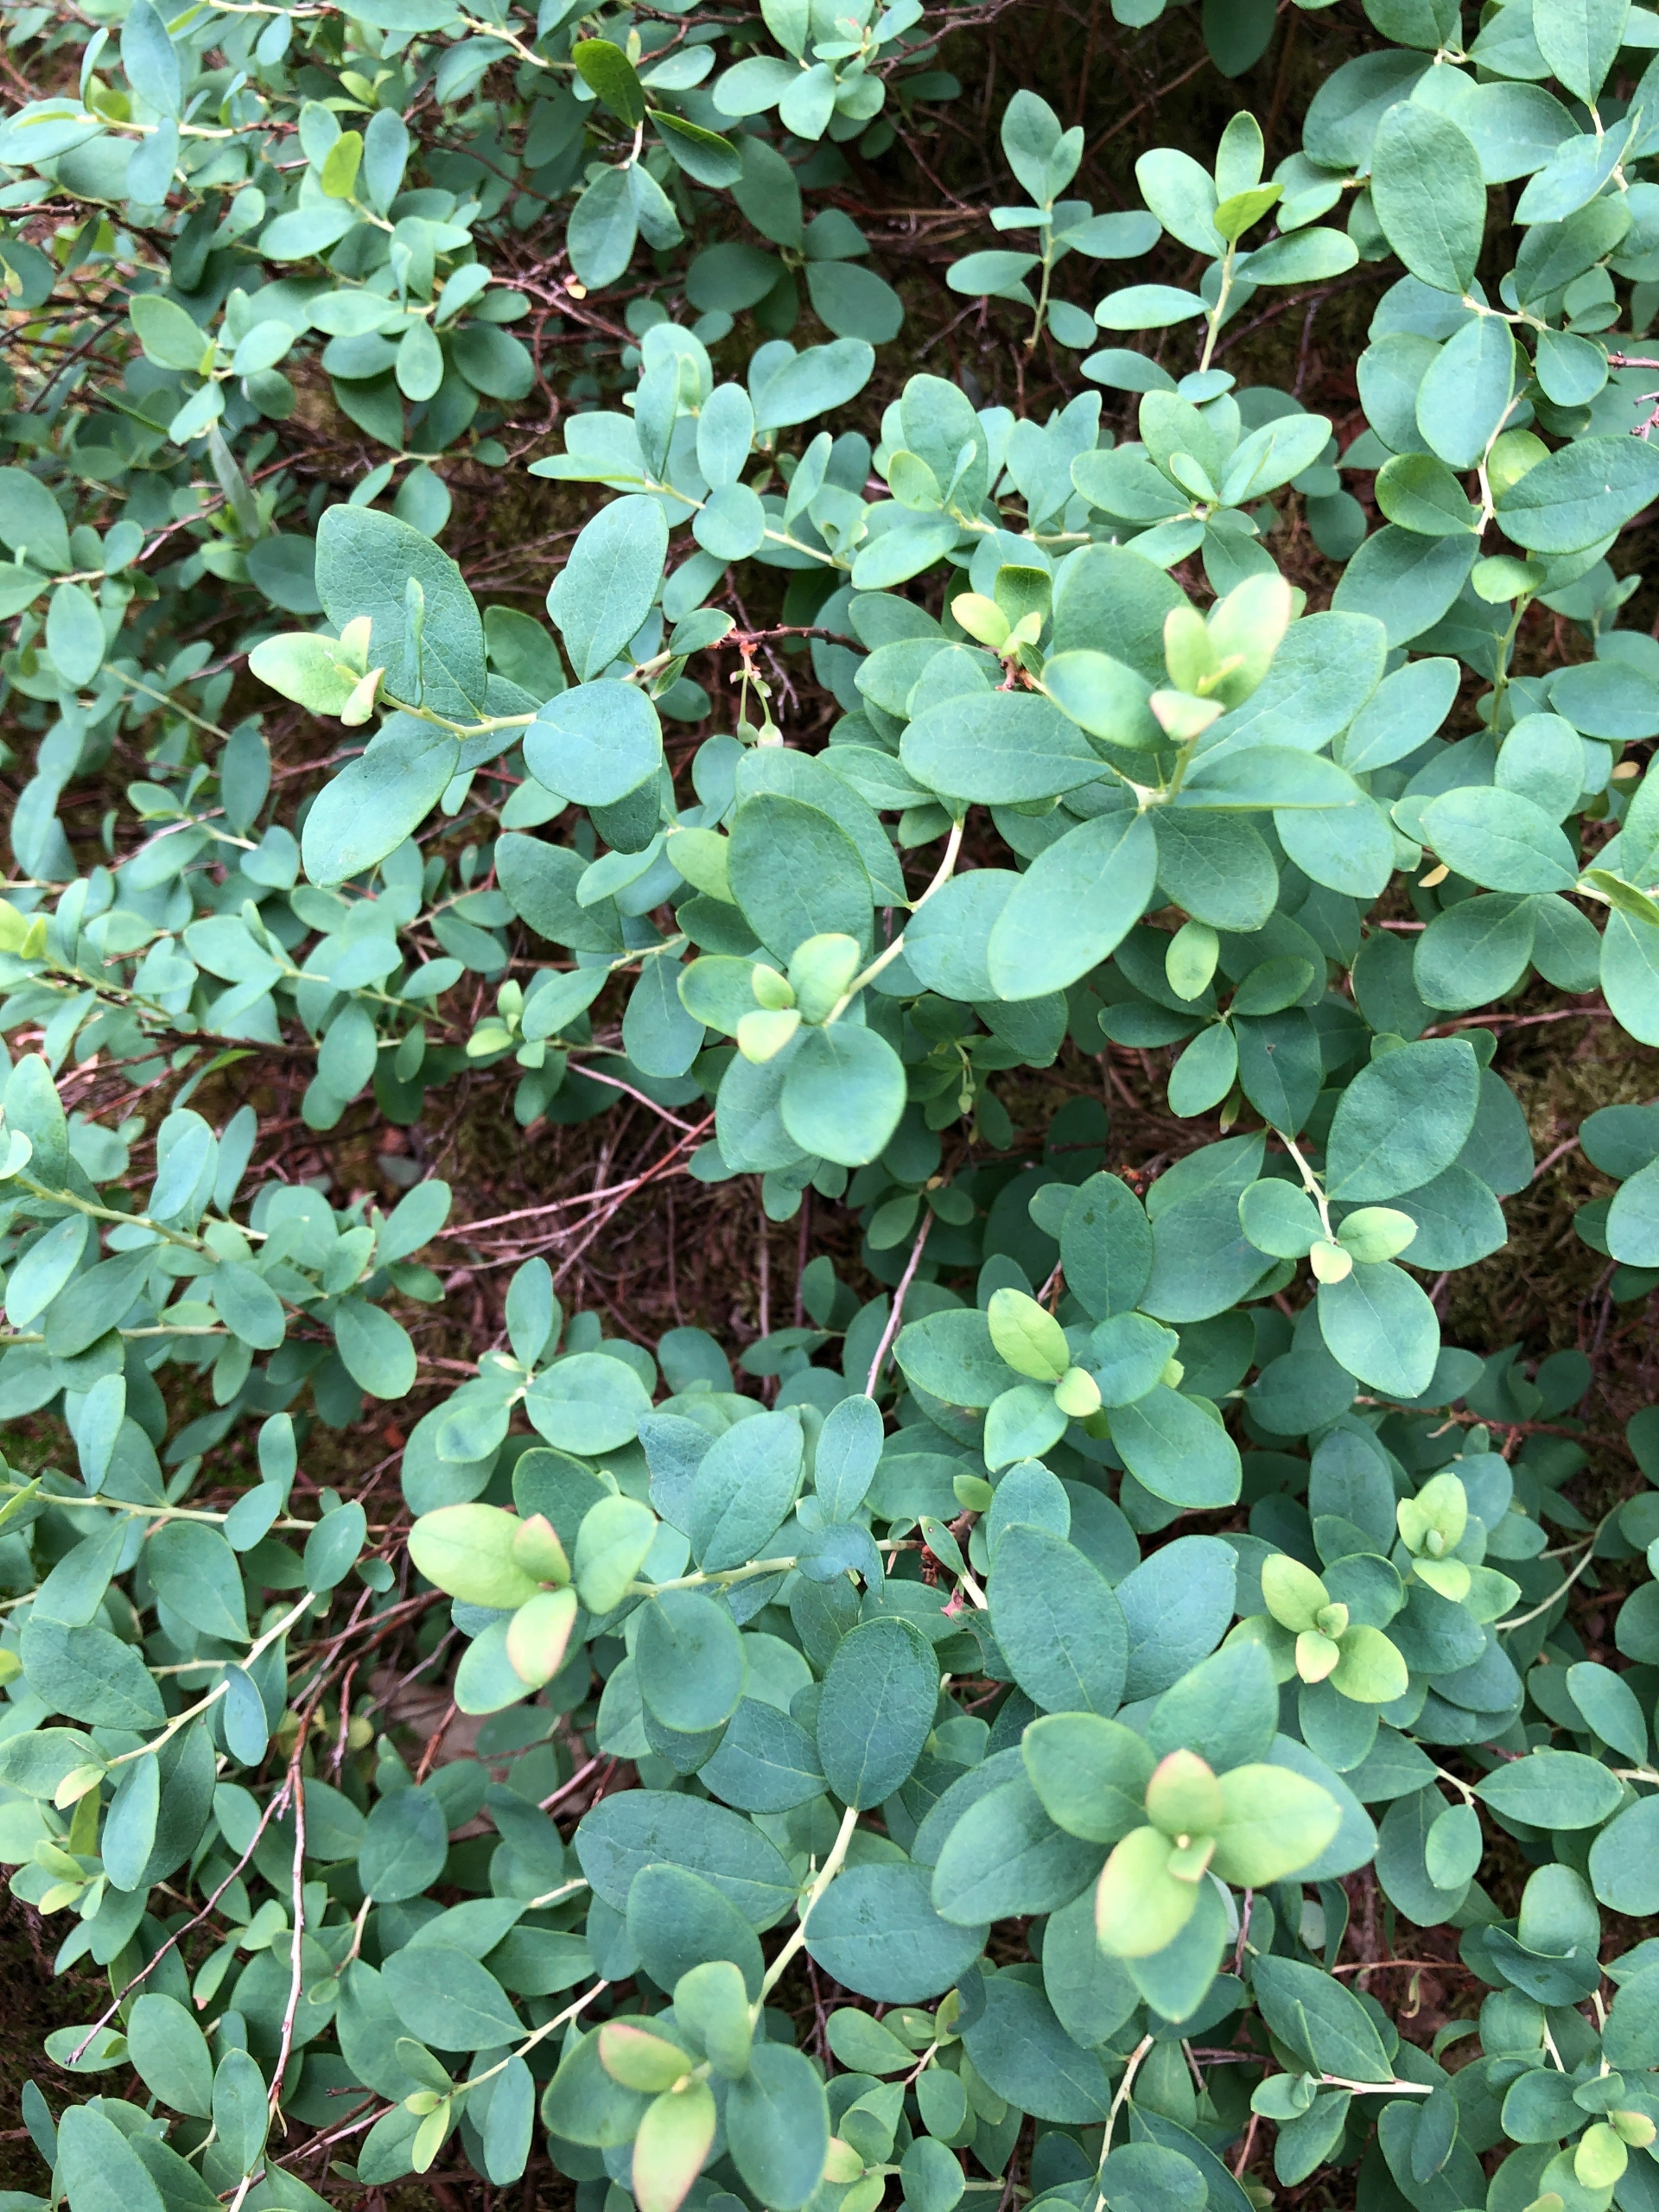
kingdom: Plantae
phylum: Tracheophyta
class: Magnoliopsida
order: Ericales
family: Ericaceae
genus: Vaccinium
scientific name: Vaccinium uliginosum
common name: Mose-bølle
